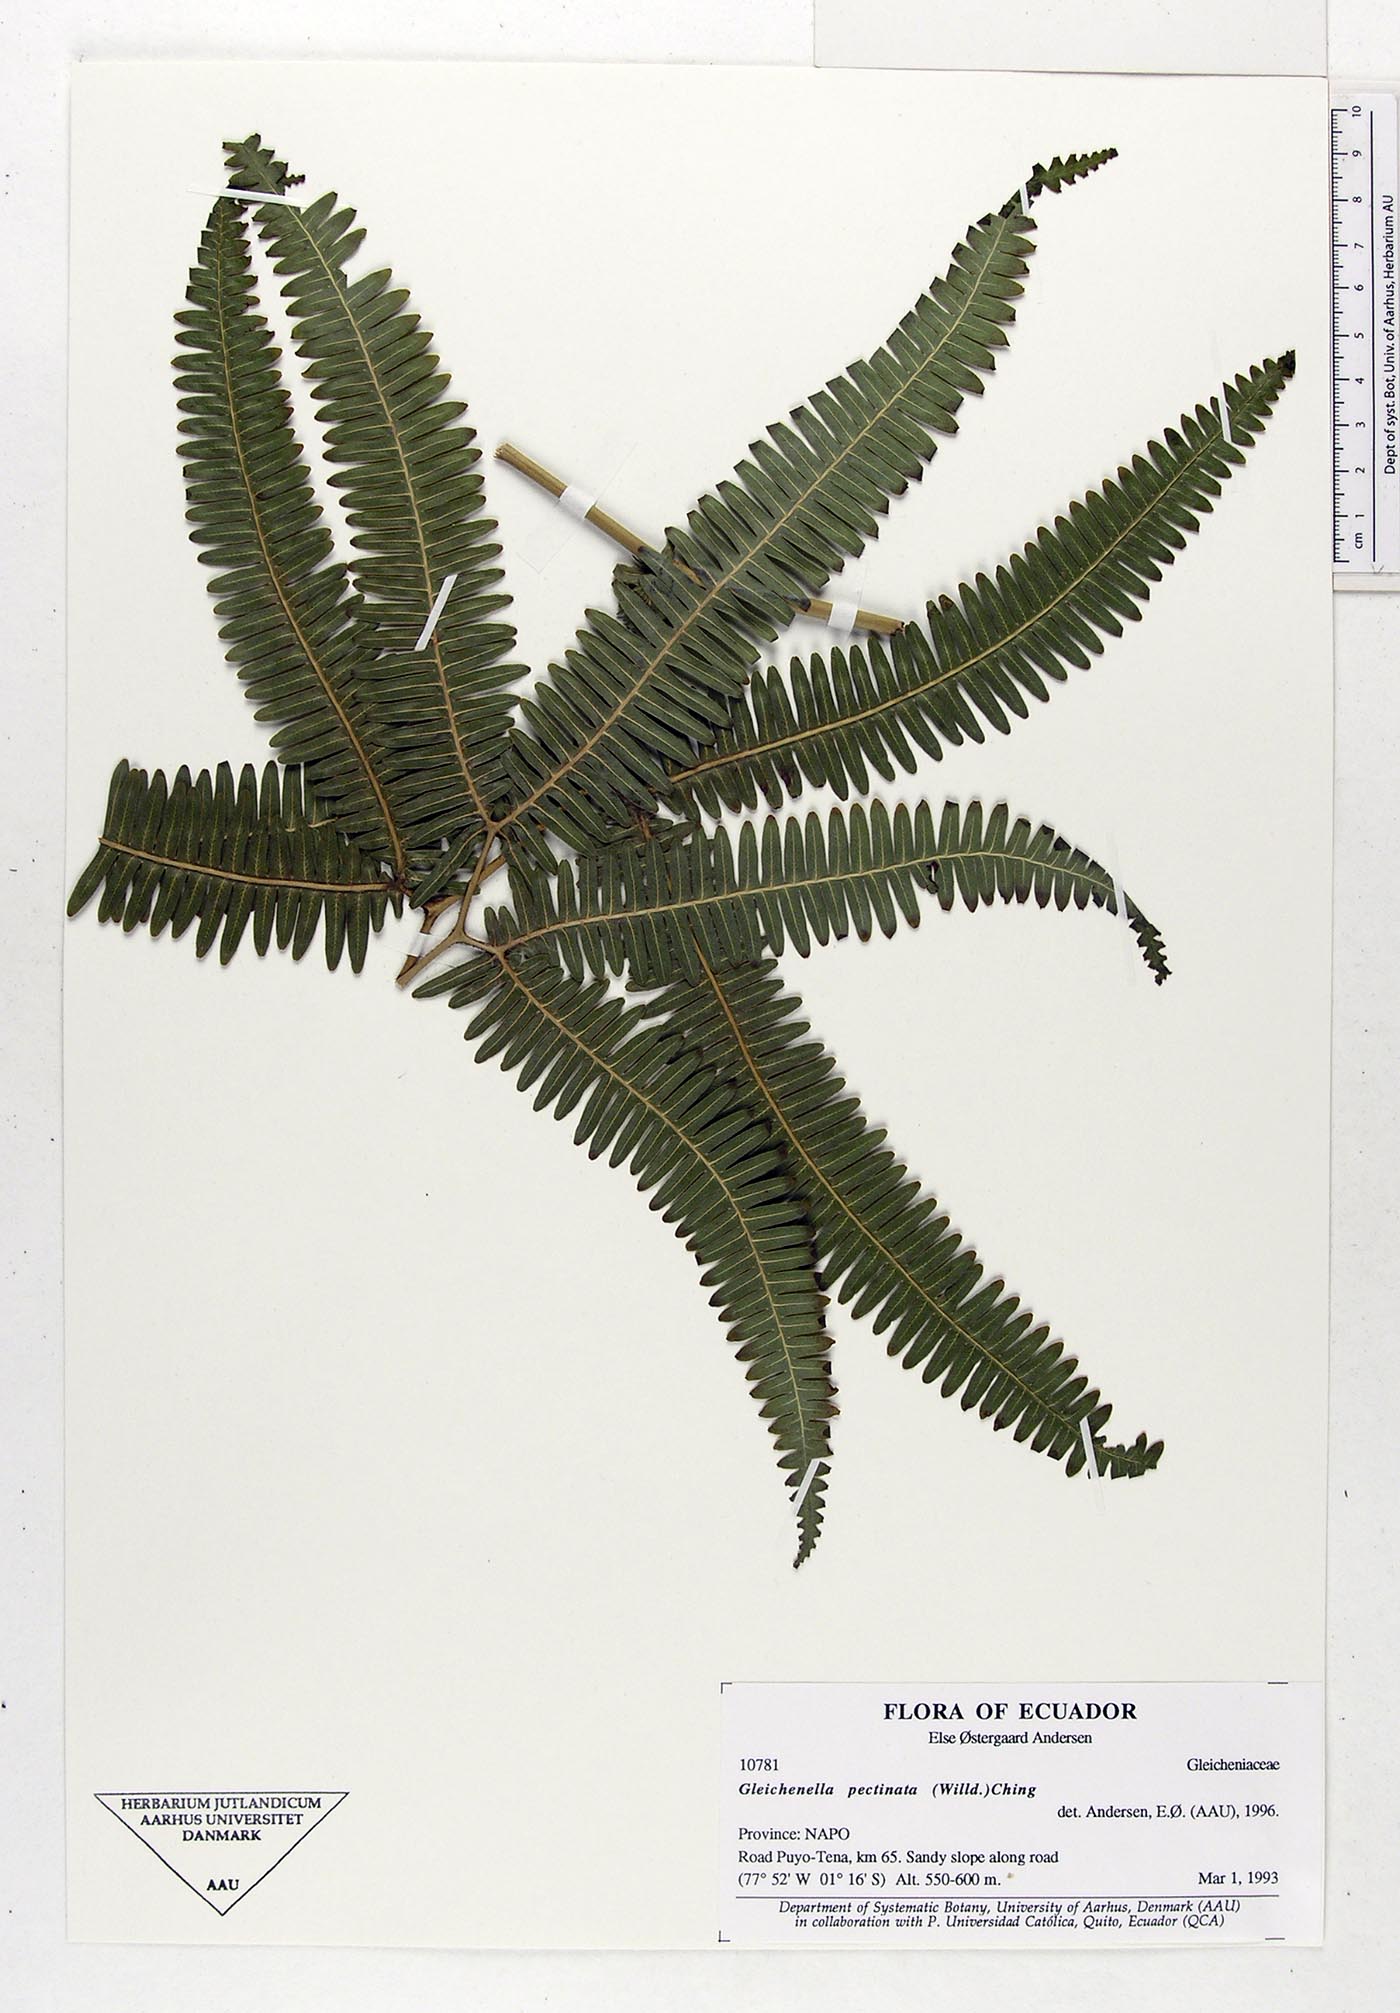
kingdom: Plantae
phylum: Tracheophyta
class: Polypodiopsida
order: Gleicheniales
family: Gleicheniaceae
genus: Gleichenella
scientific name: Gleichenella pectinata
